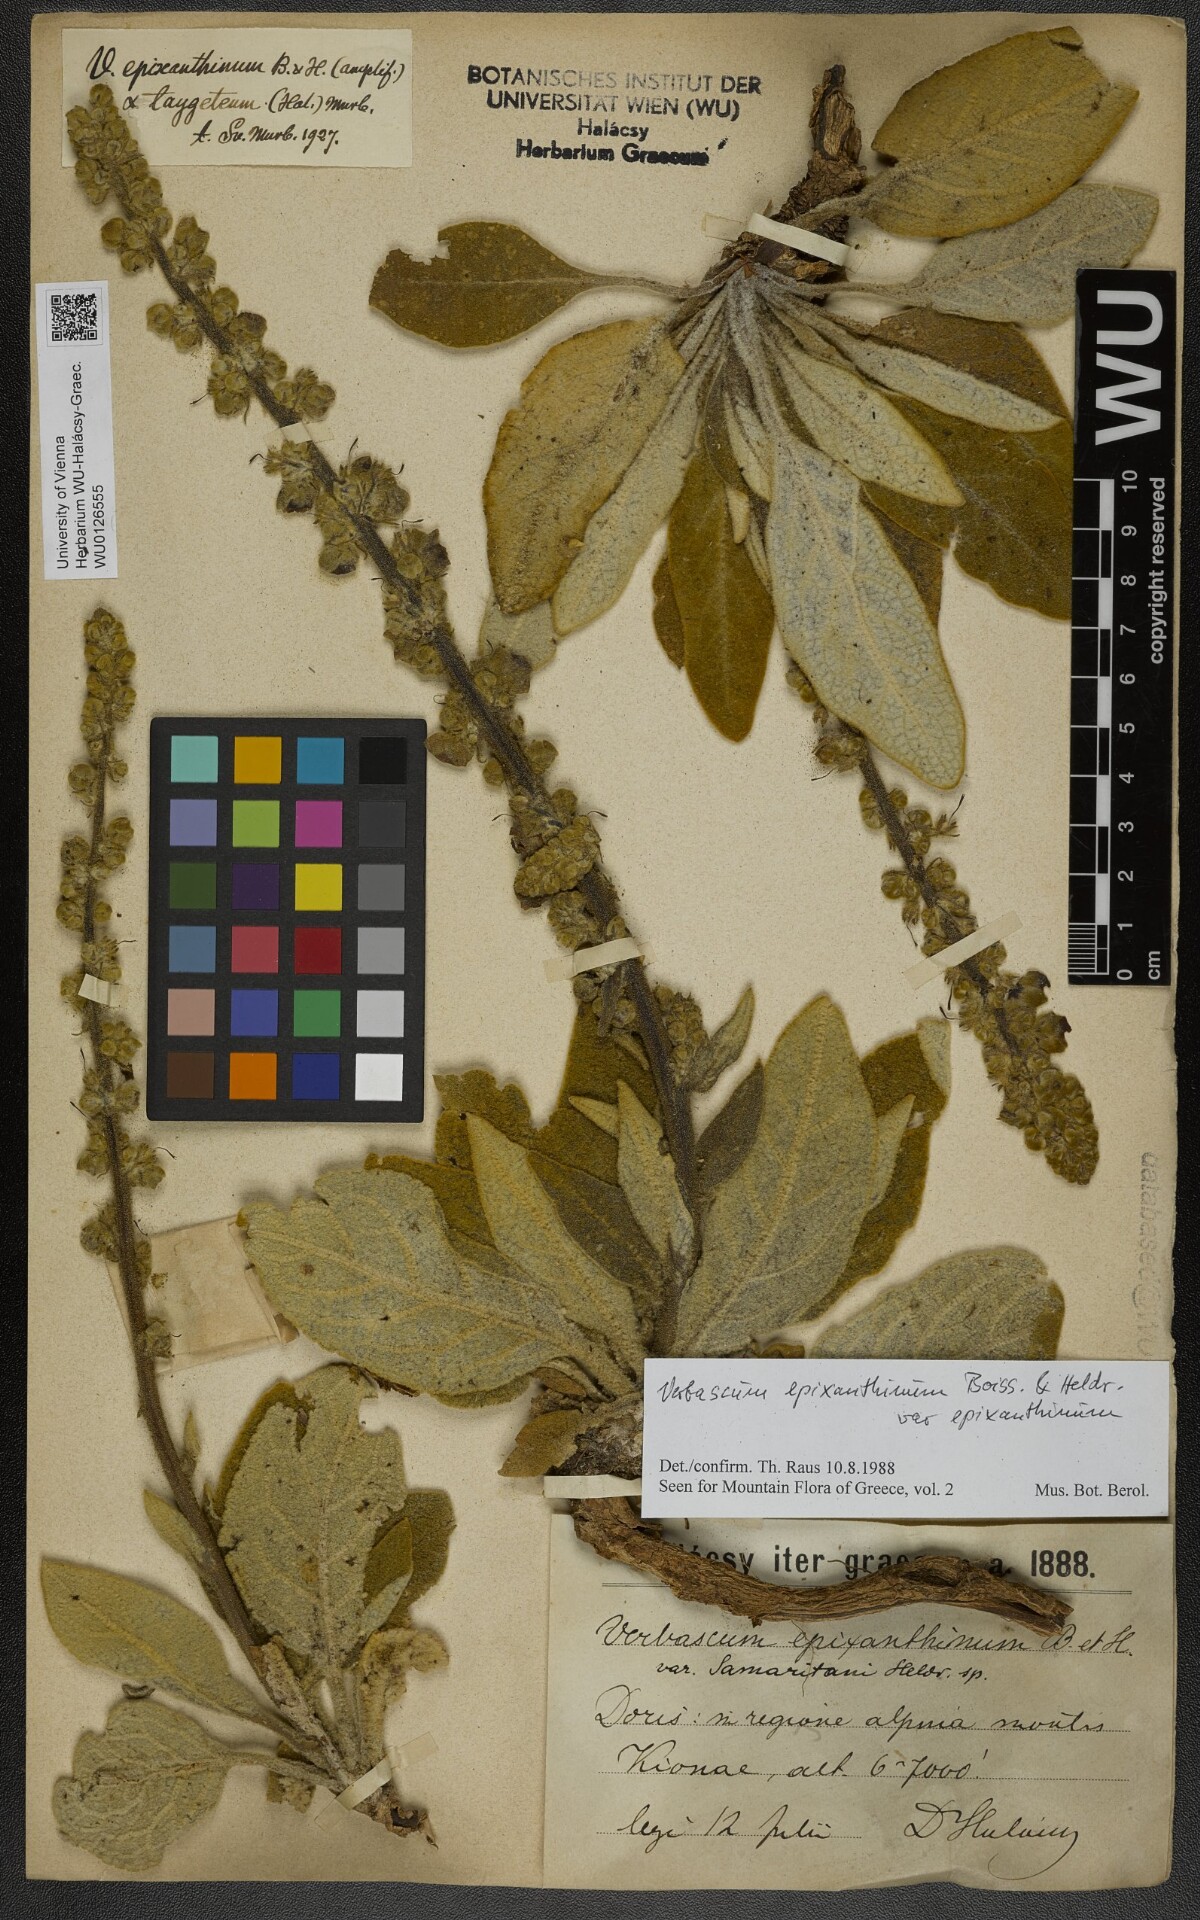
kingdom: Plantae
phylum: Tracheophyta
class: Magnoliopsida
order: Lamiales
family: Scrophulariaceae
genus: Verbascum
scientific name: Verbascum epixanthinum
